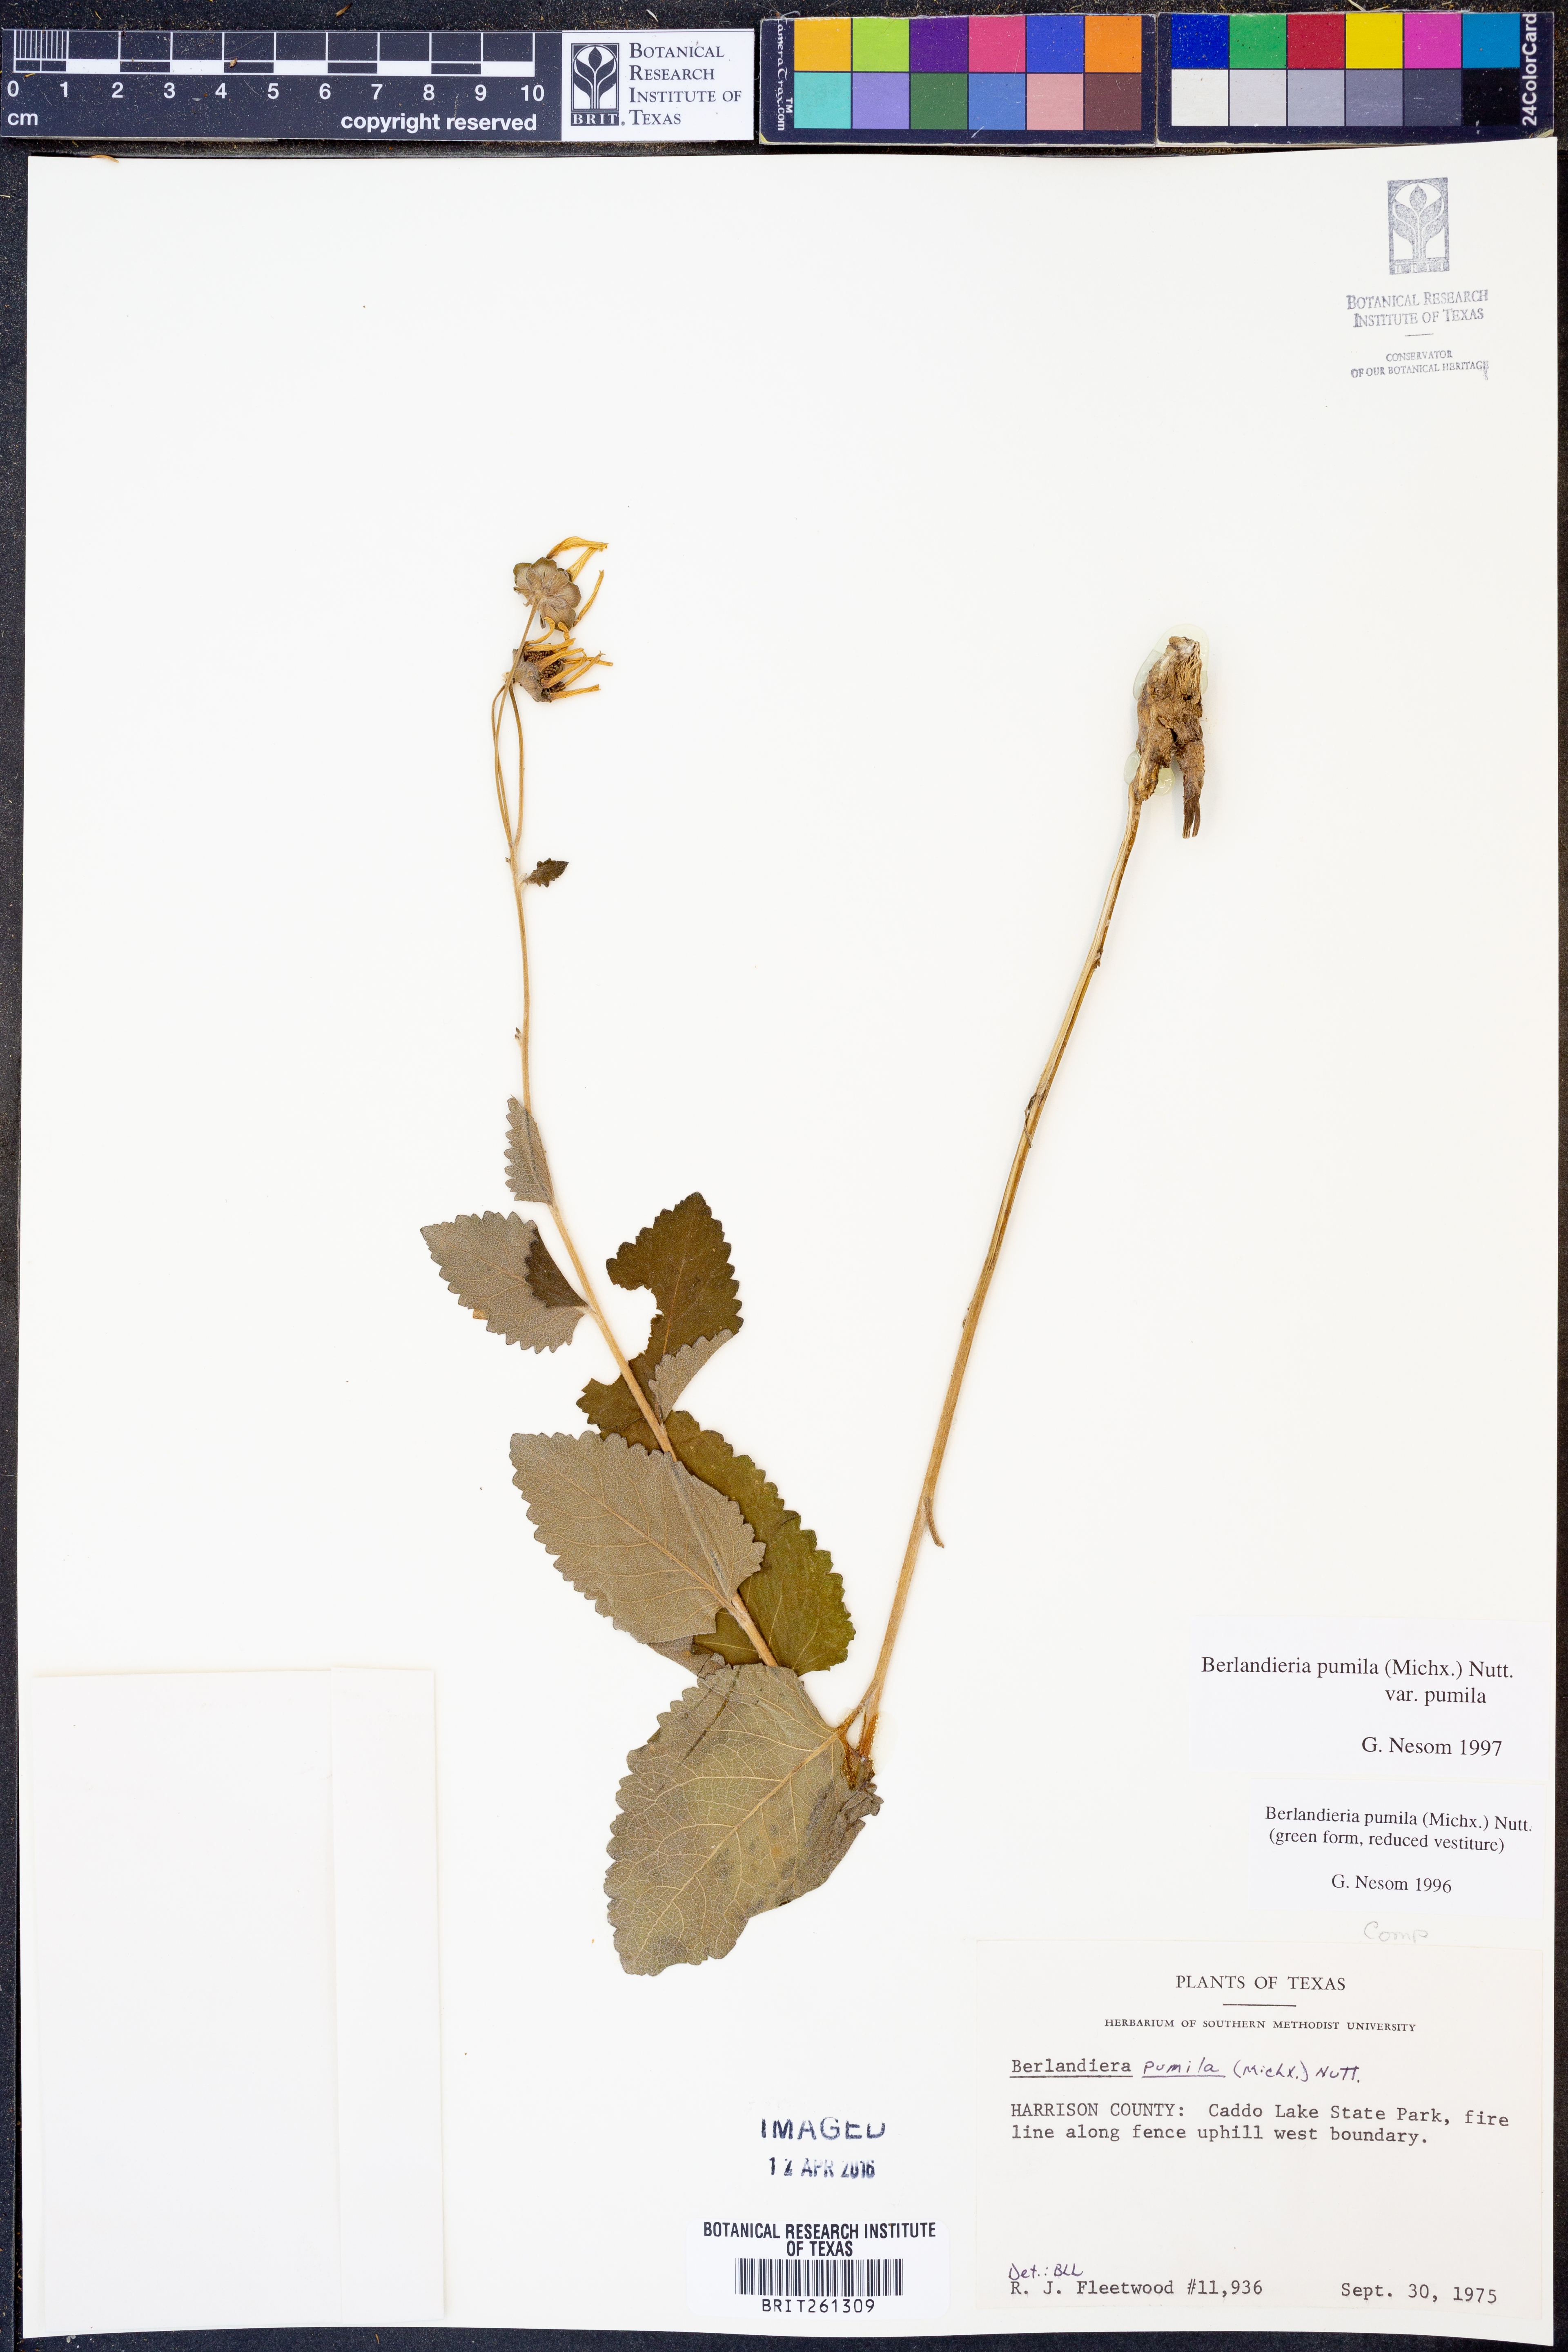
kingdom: Plantae
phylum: Tracheophyta
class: Magnoliopsida
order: Asterales
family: Asteraceae
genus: Berlandiera
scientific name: Berlandiera pumila
